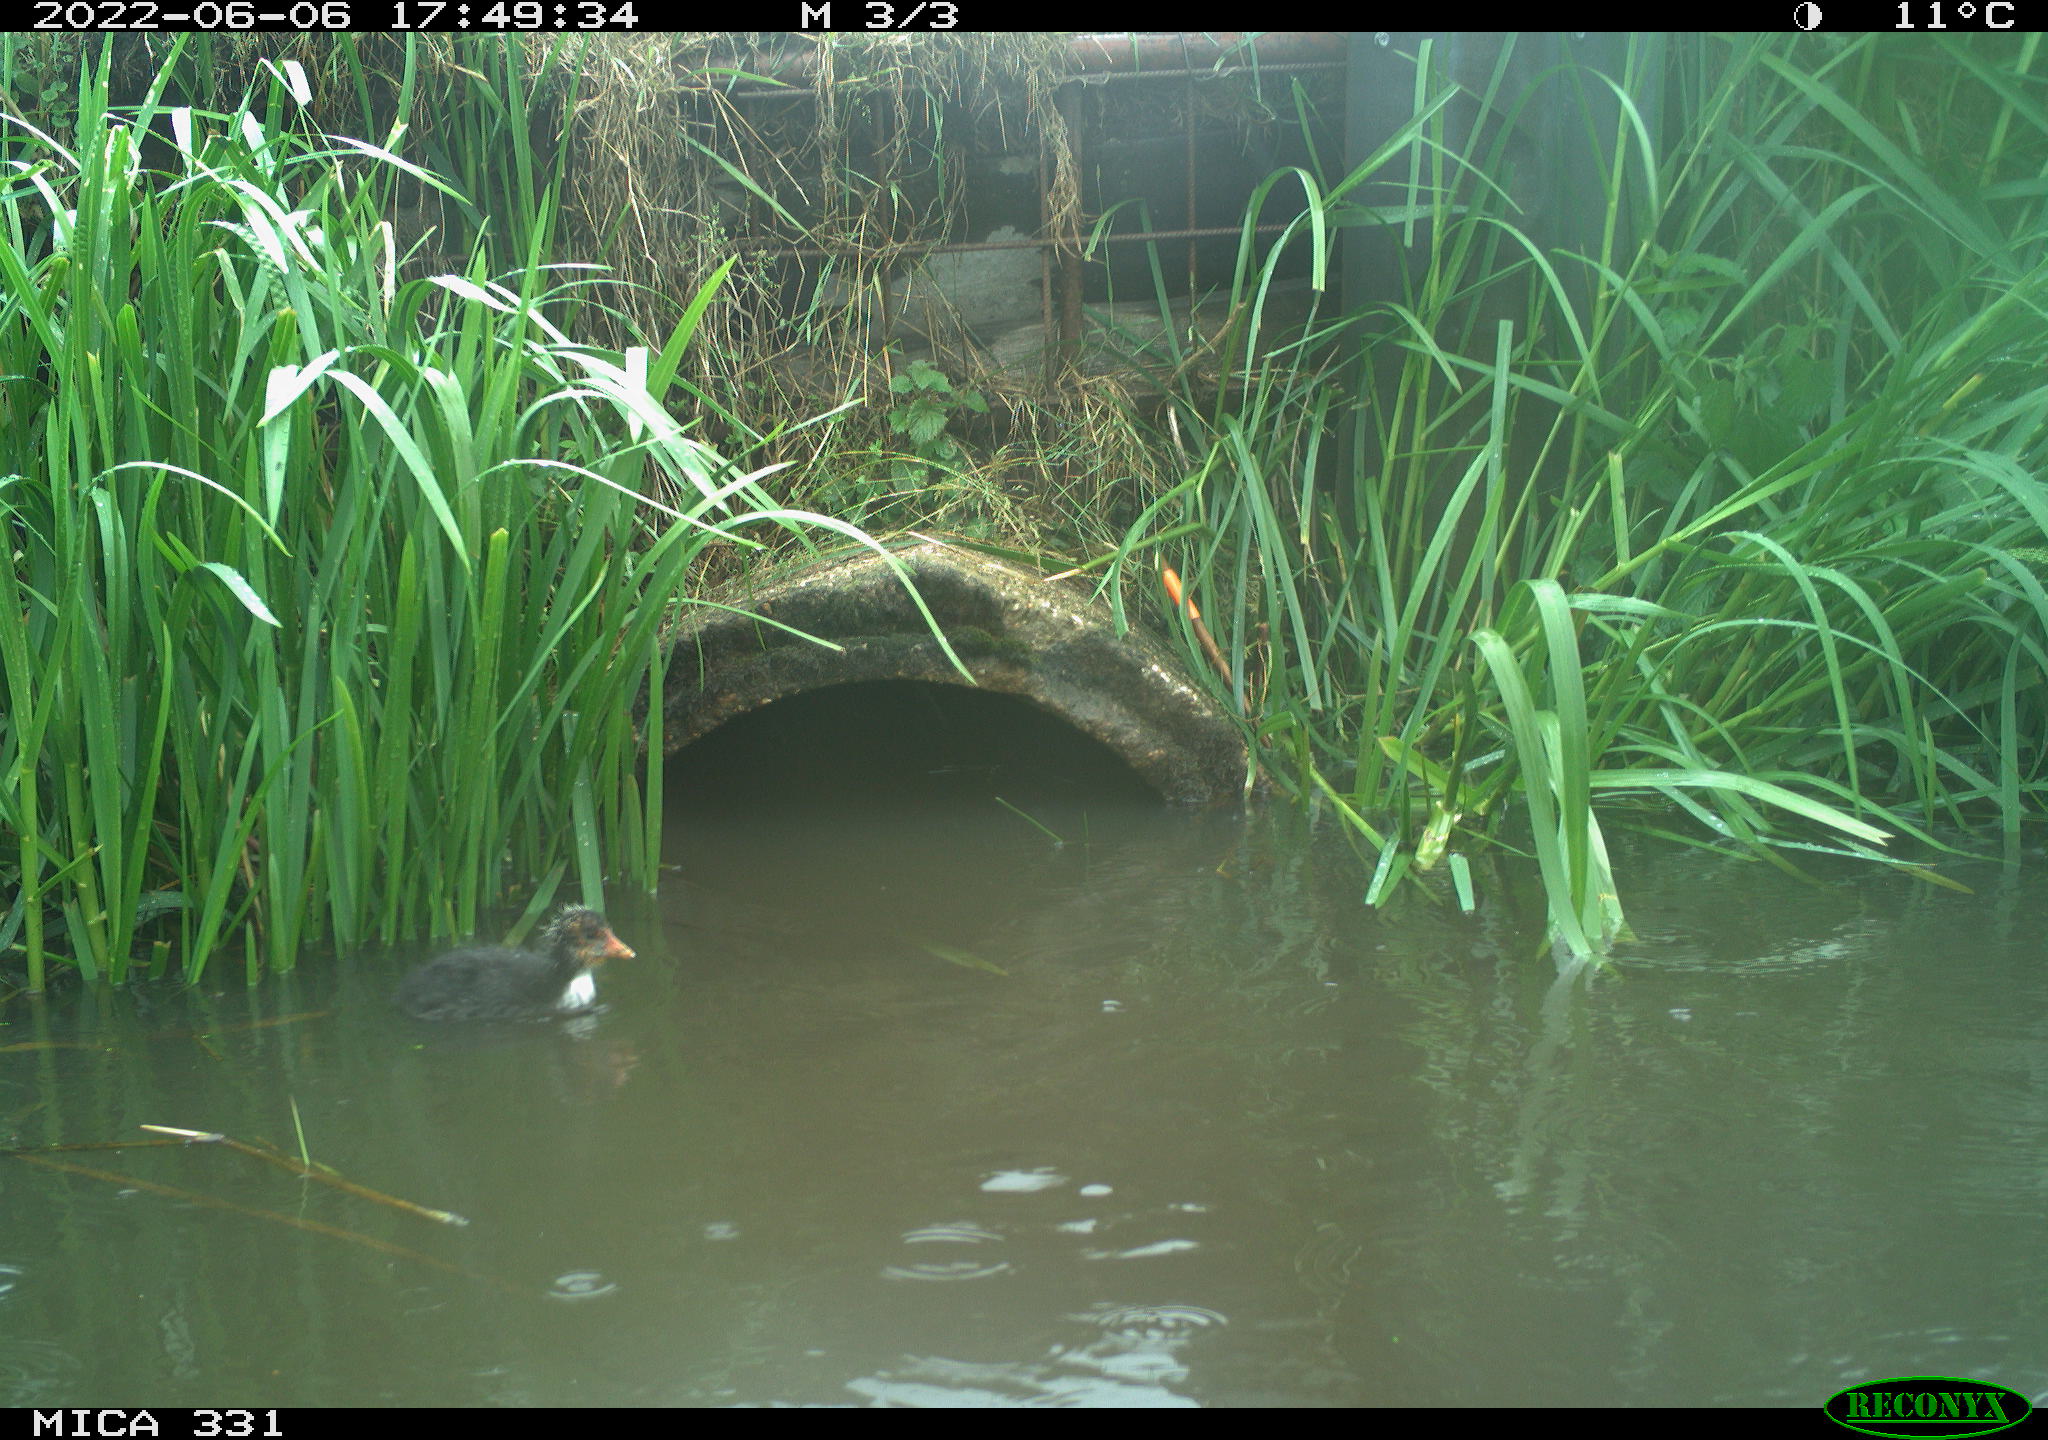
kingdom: Animalia
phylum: Chordata
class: Aves
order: Gruiformes
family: Rallidae
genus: Fulica
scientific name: Fulica atra
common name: Eurasian coot
